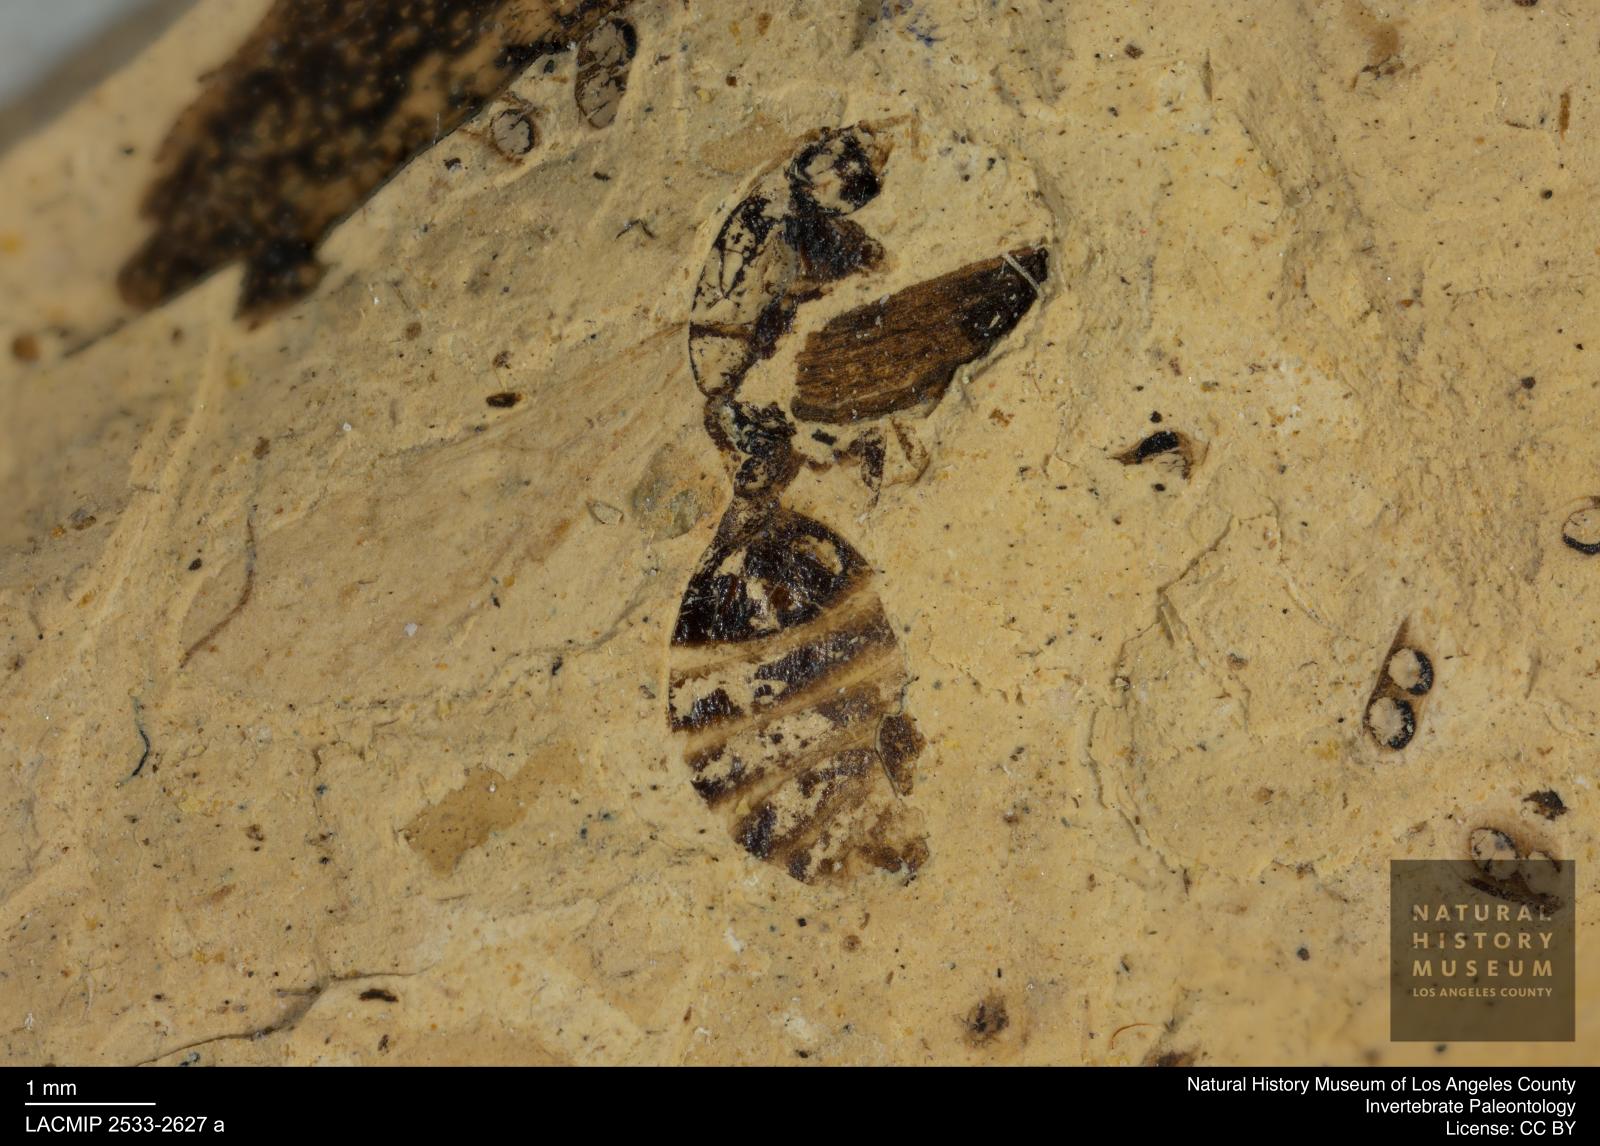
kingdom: Animalia
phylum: Arthropoda
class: Insecta
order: Hymenoptera
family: Formicidae
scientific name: Formicidae
